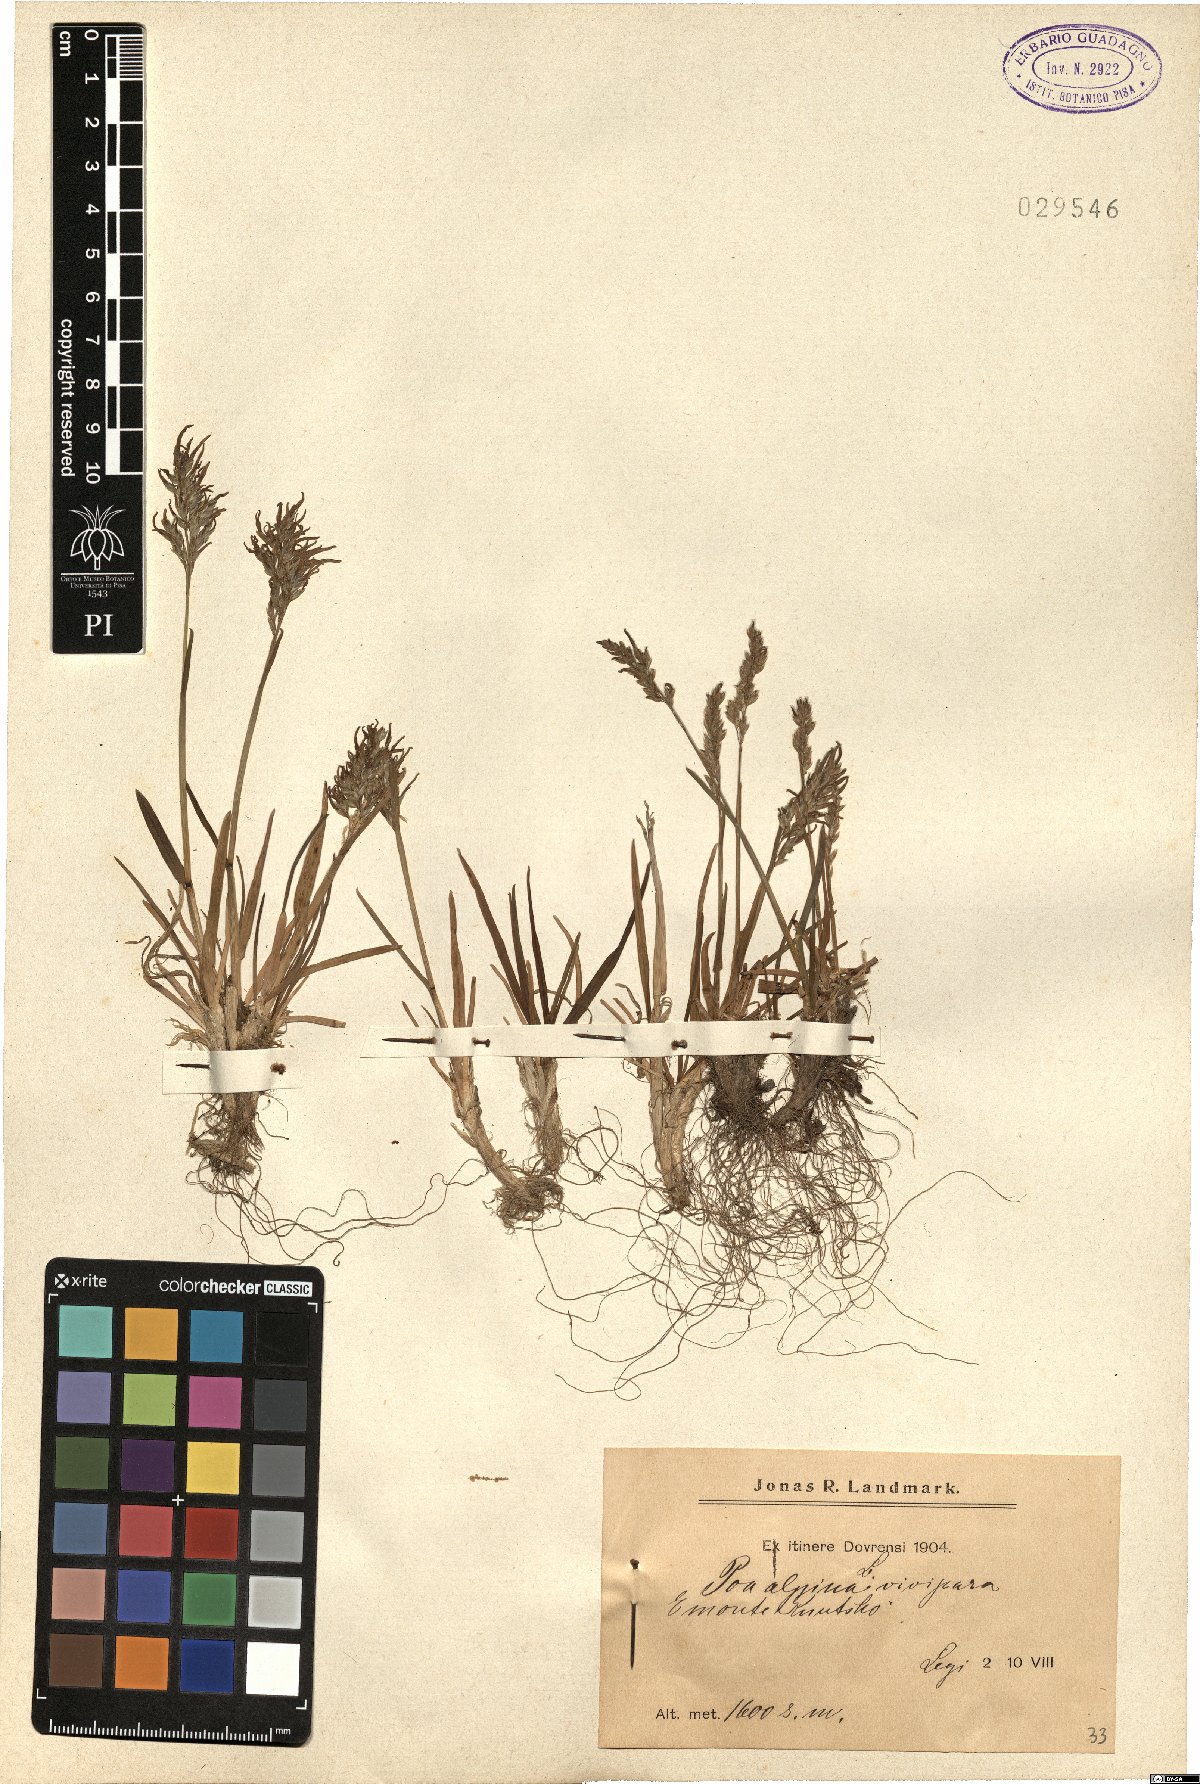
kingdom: Plantae
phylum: Tracheophyta
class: Liliopsida
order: Poales
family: Poaceae
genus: Poa
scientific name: Poa alpina
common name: Alpine bluegrass
